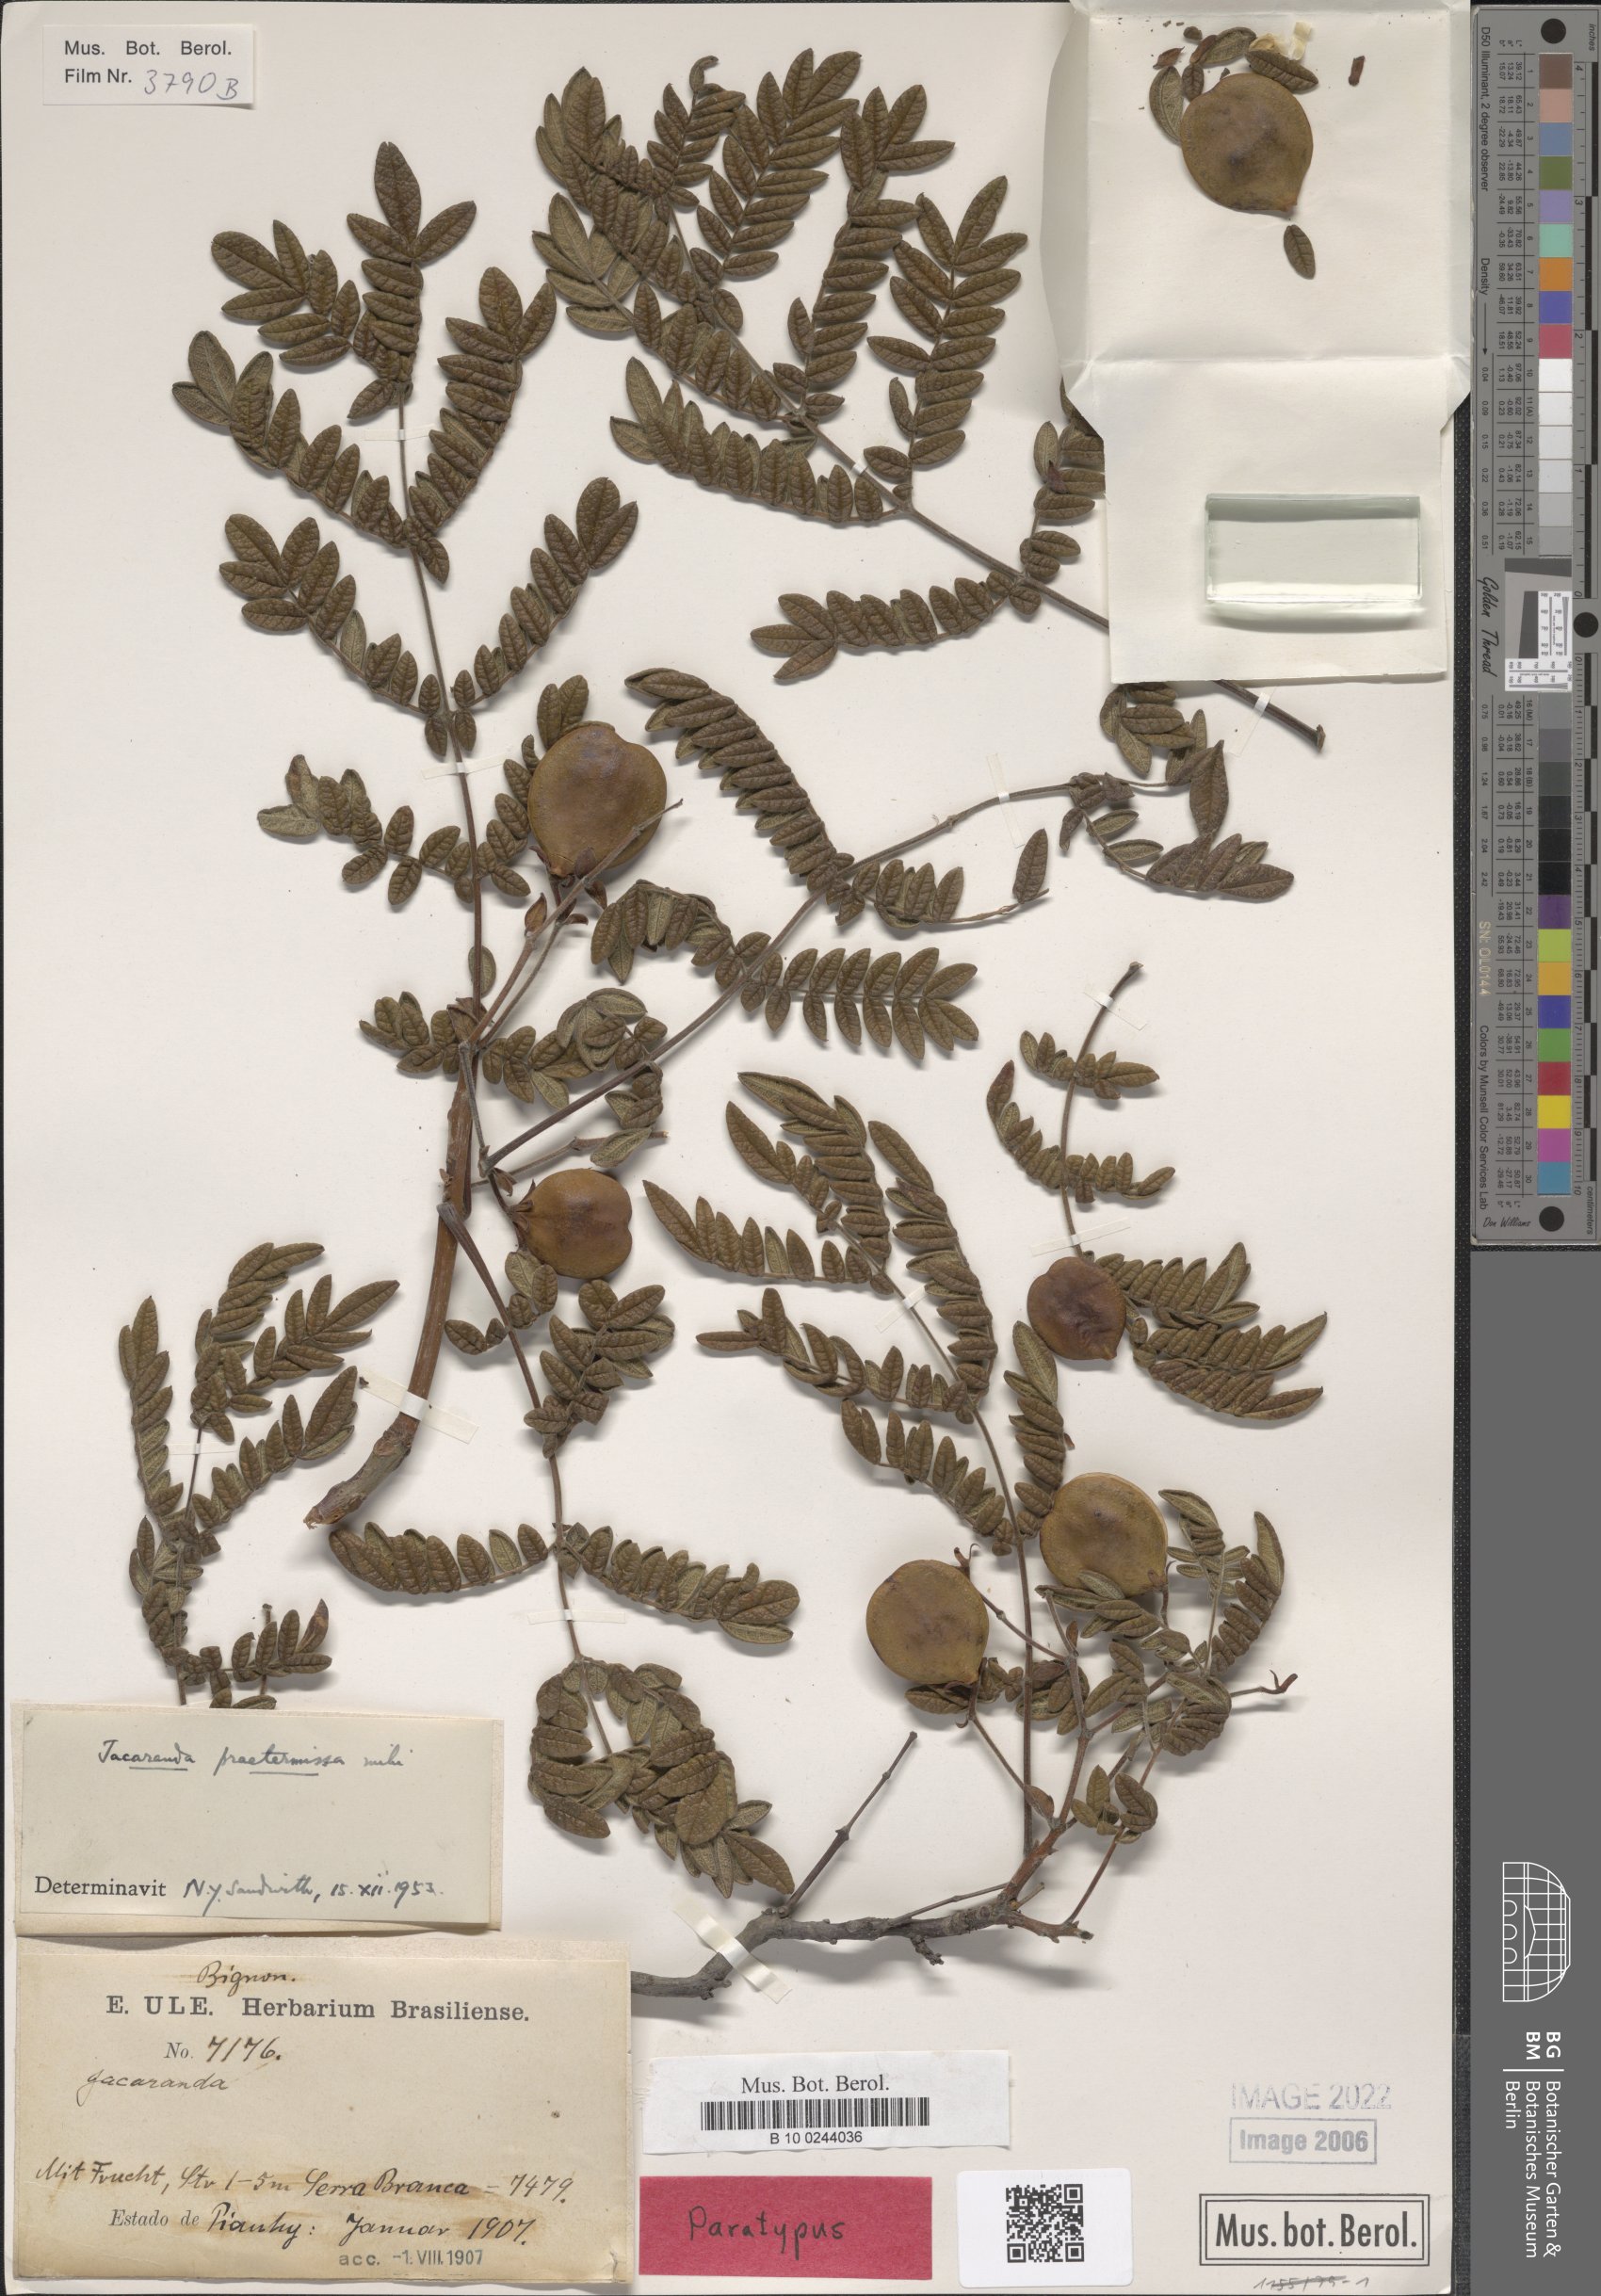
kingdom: Plantae
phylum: Tracheophyta
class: Magnoliopsida
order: Lamiales
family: Bignoniaceae
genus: Jacaranda
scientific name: Jacaranda praetermissa
